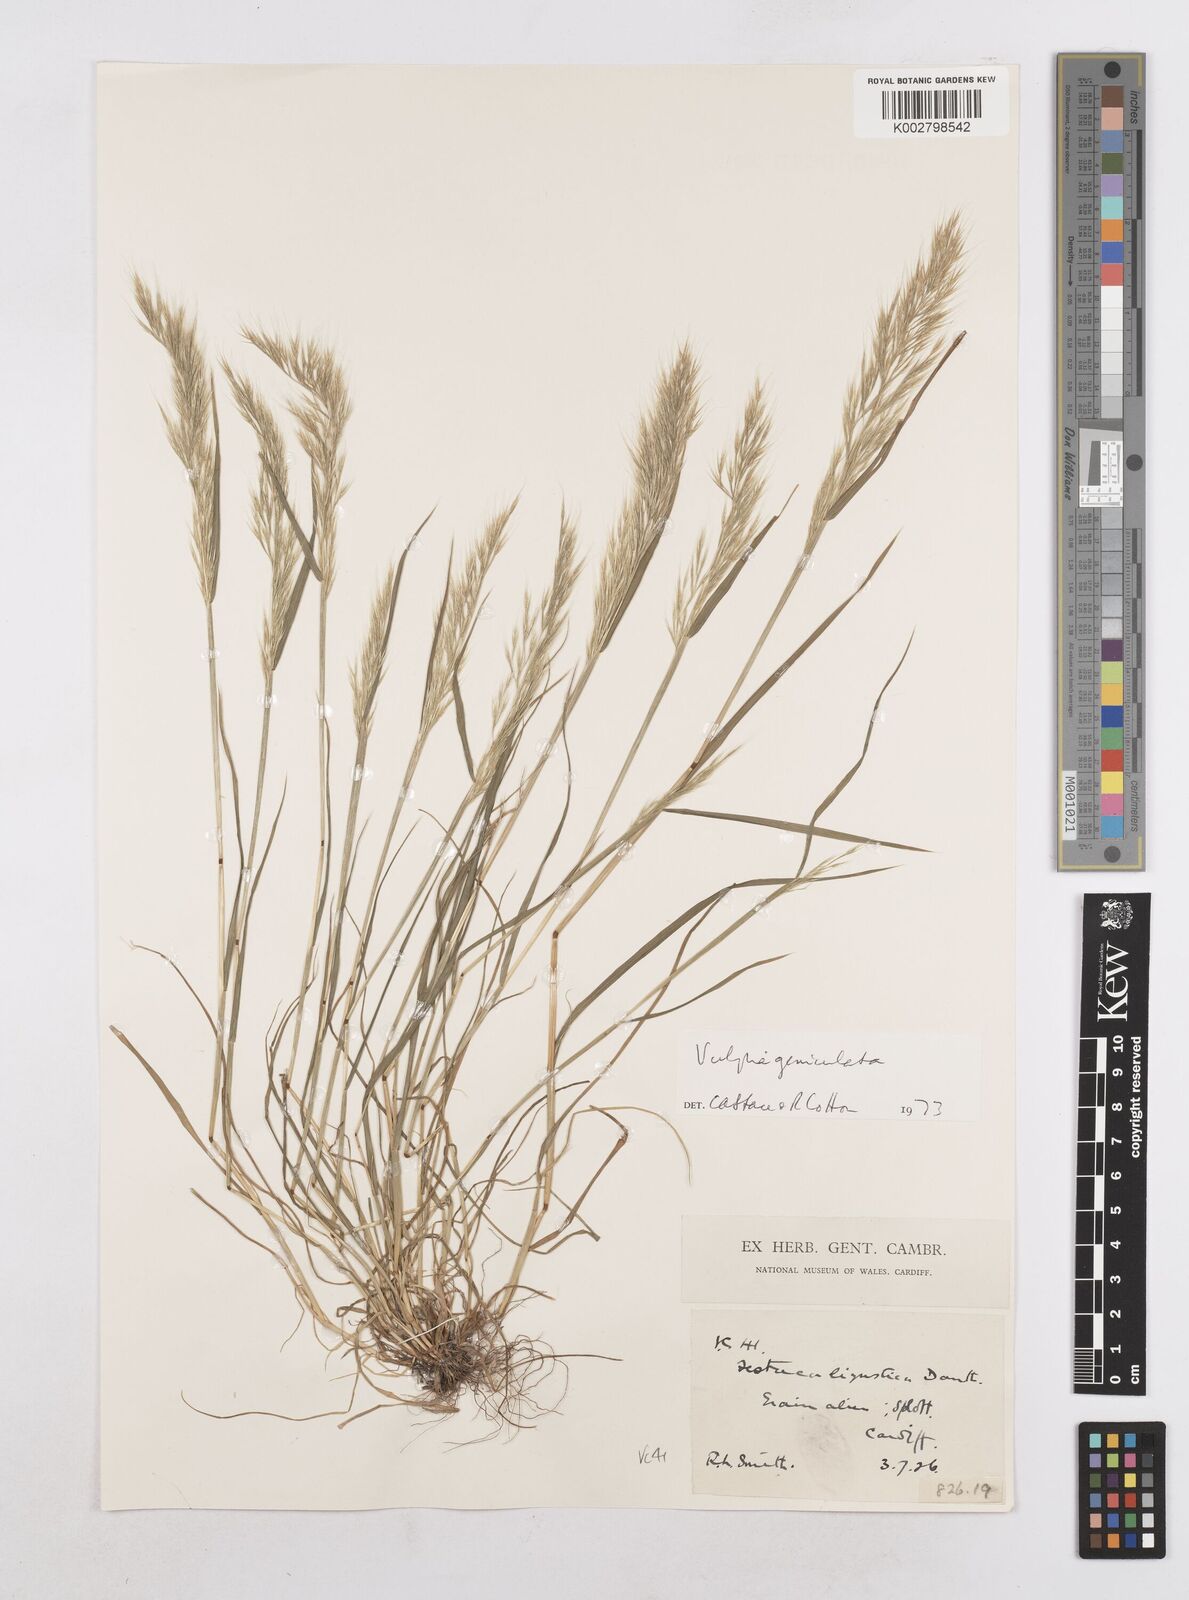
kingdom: Plantae
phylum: Tracheophyta
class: Liliopsida
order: Poales
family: Poaceae
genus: Festuca
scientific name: Festuca geniculata
